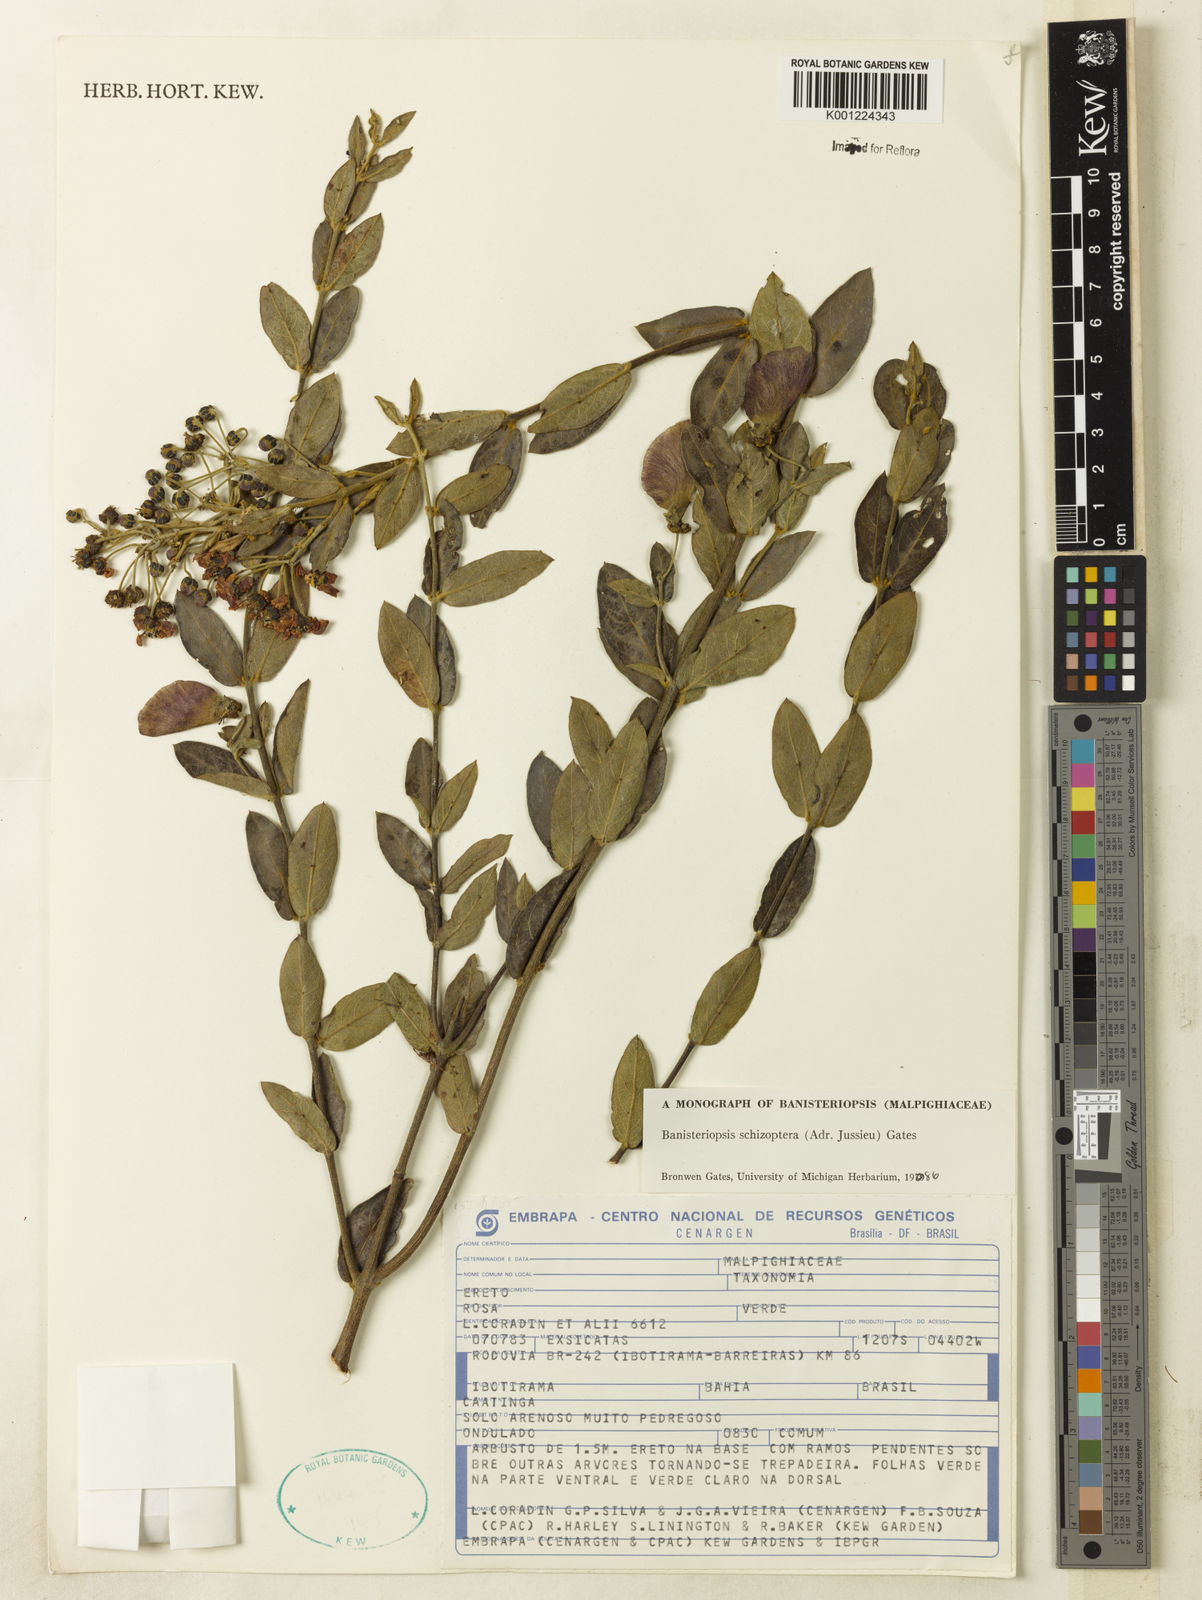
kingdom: Plantae
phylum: Tracheophyta
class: Magnoliopsida
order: Malpighiales
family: Malpighiaceae
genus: Banisteriopsis
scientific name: Banisteriopsis schizoptera
